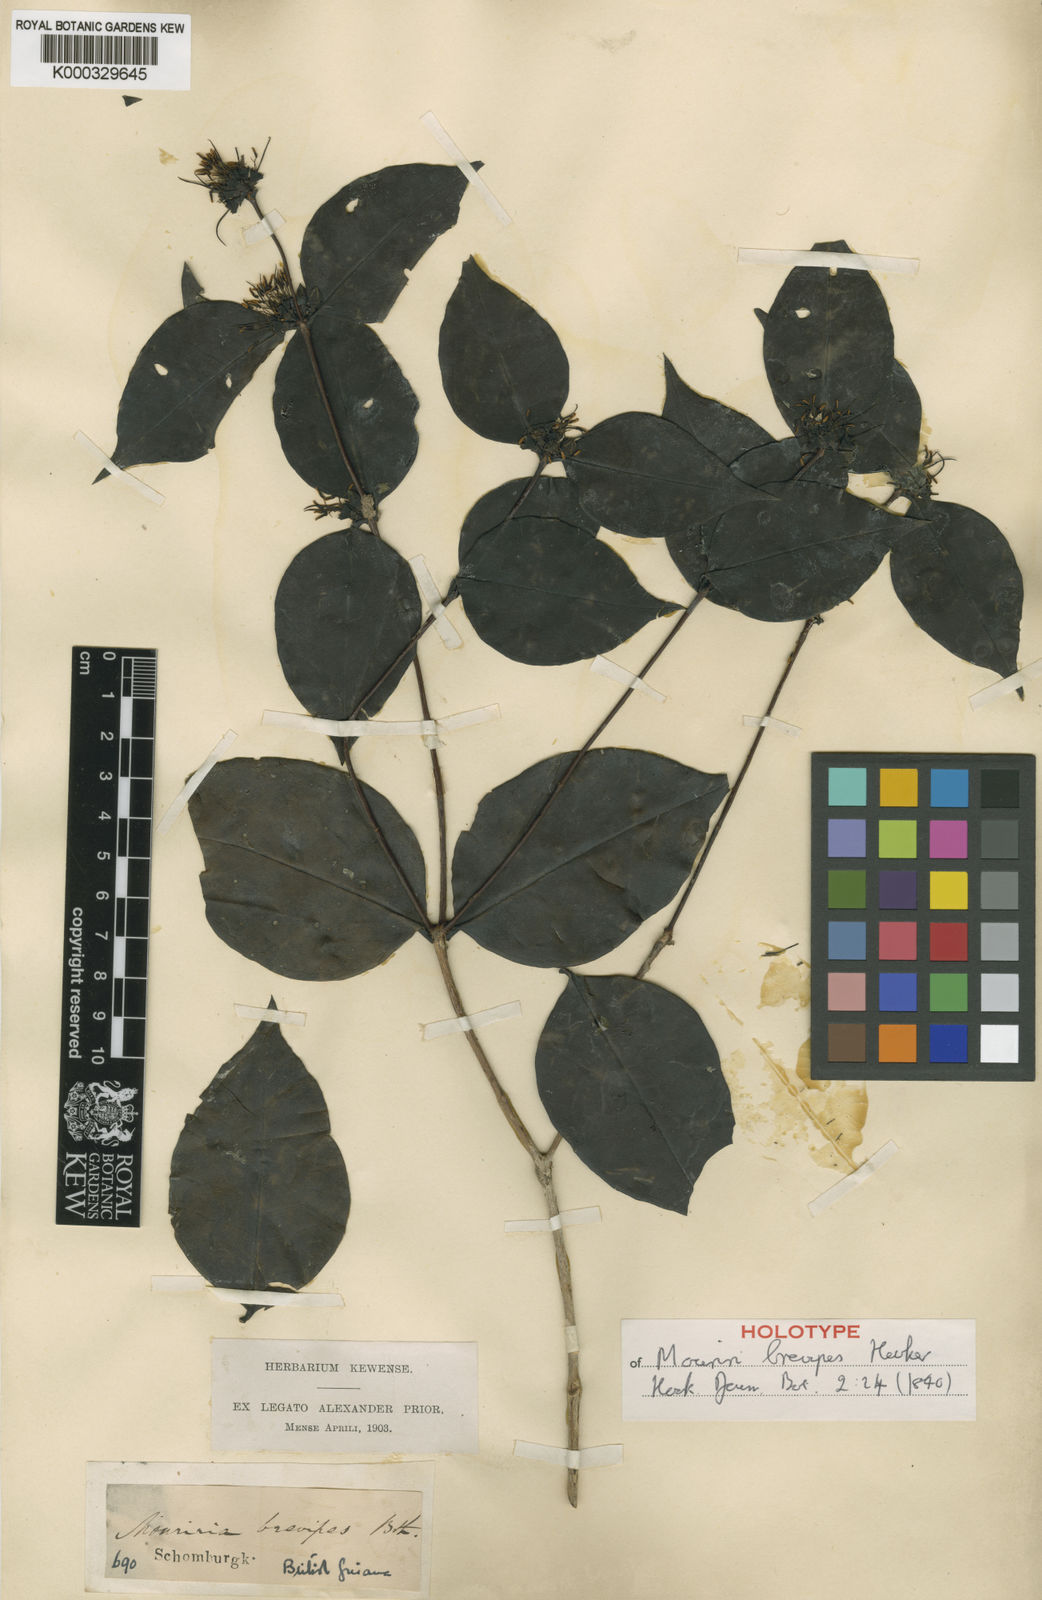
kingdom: Plantae
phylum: Tracheophyta
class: Magnoliopsida
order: Myrtales
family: Melastomataceae
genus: Mouriri
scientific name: Mouriri
